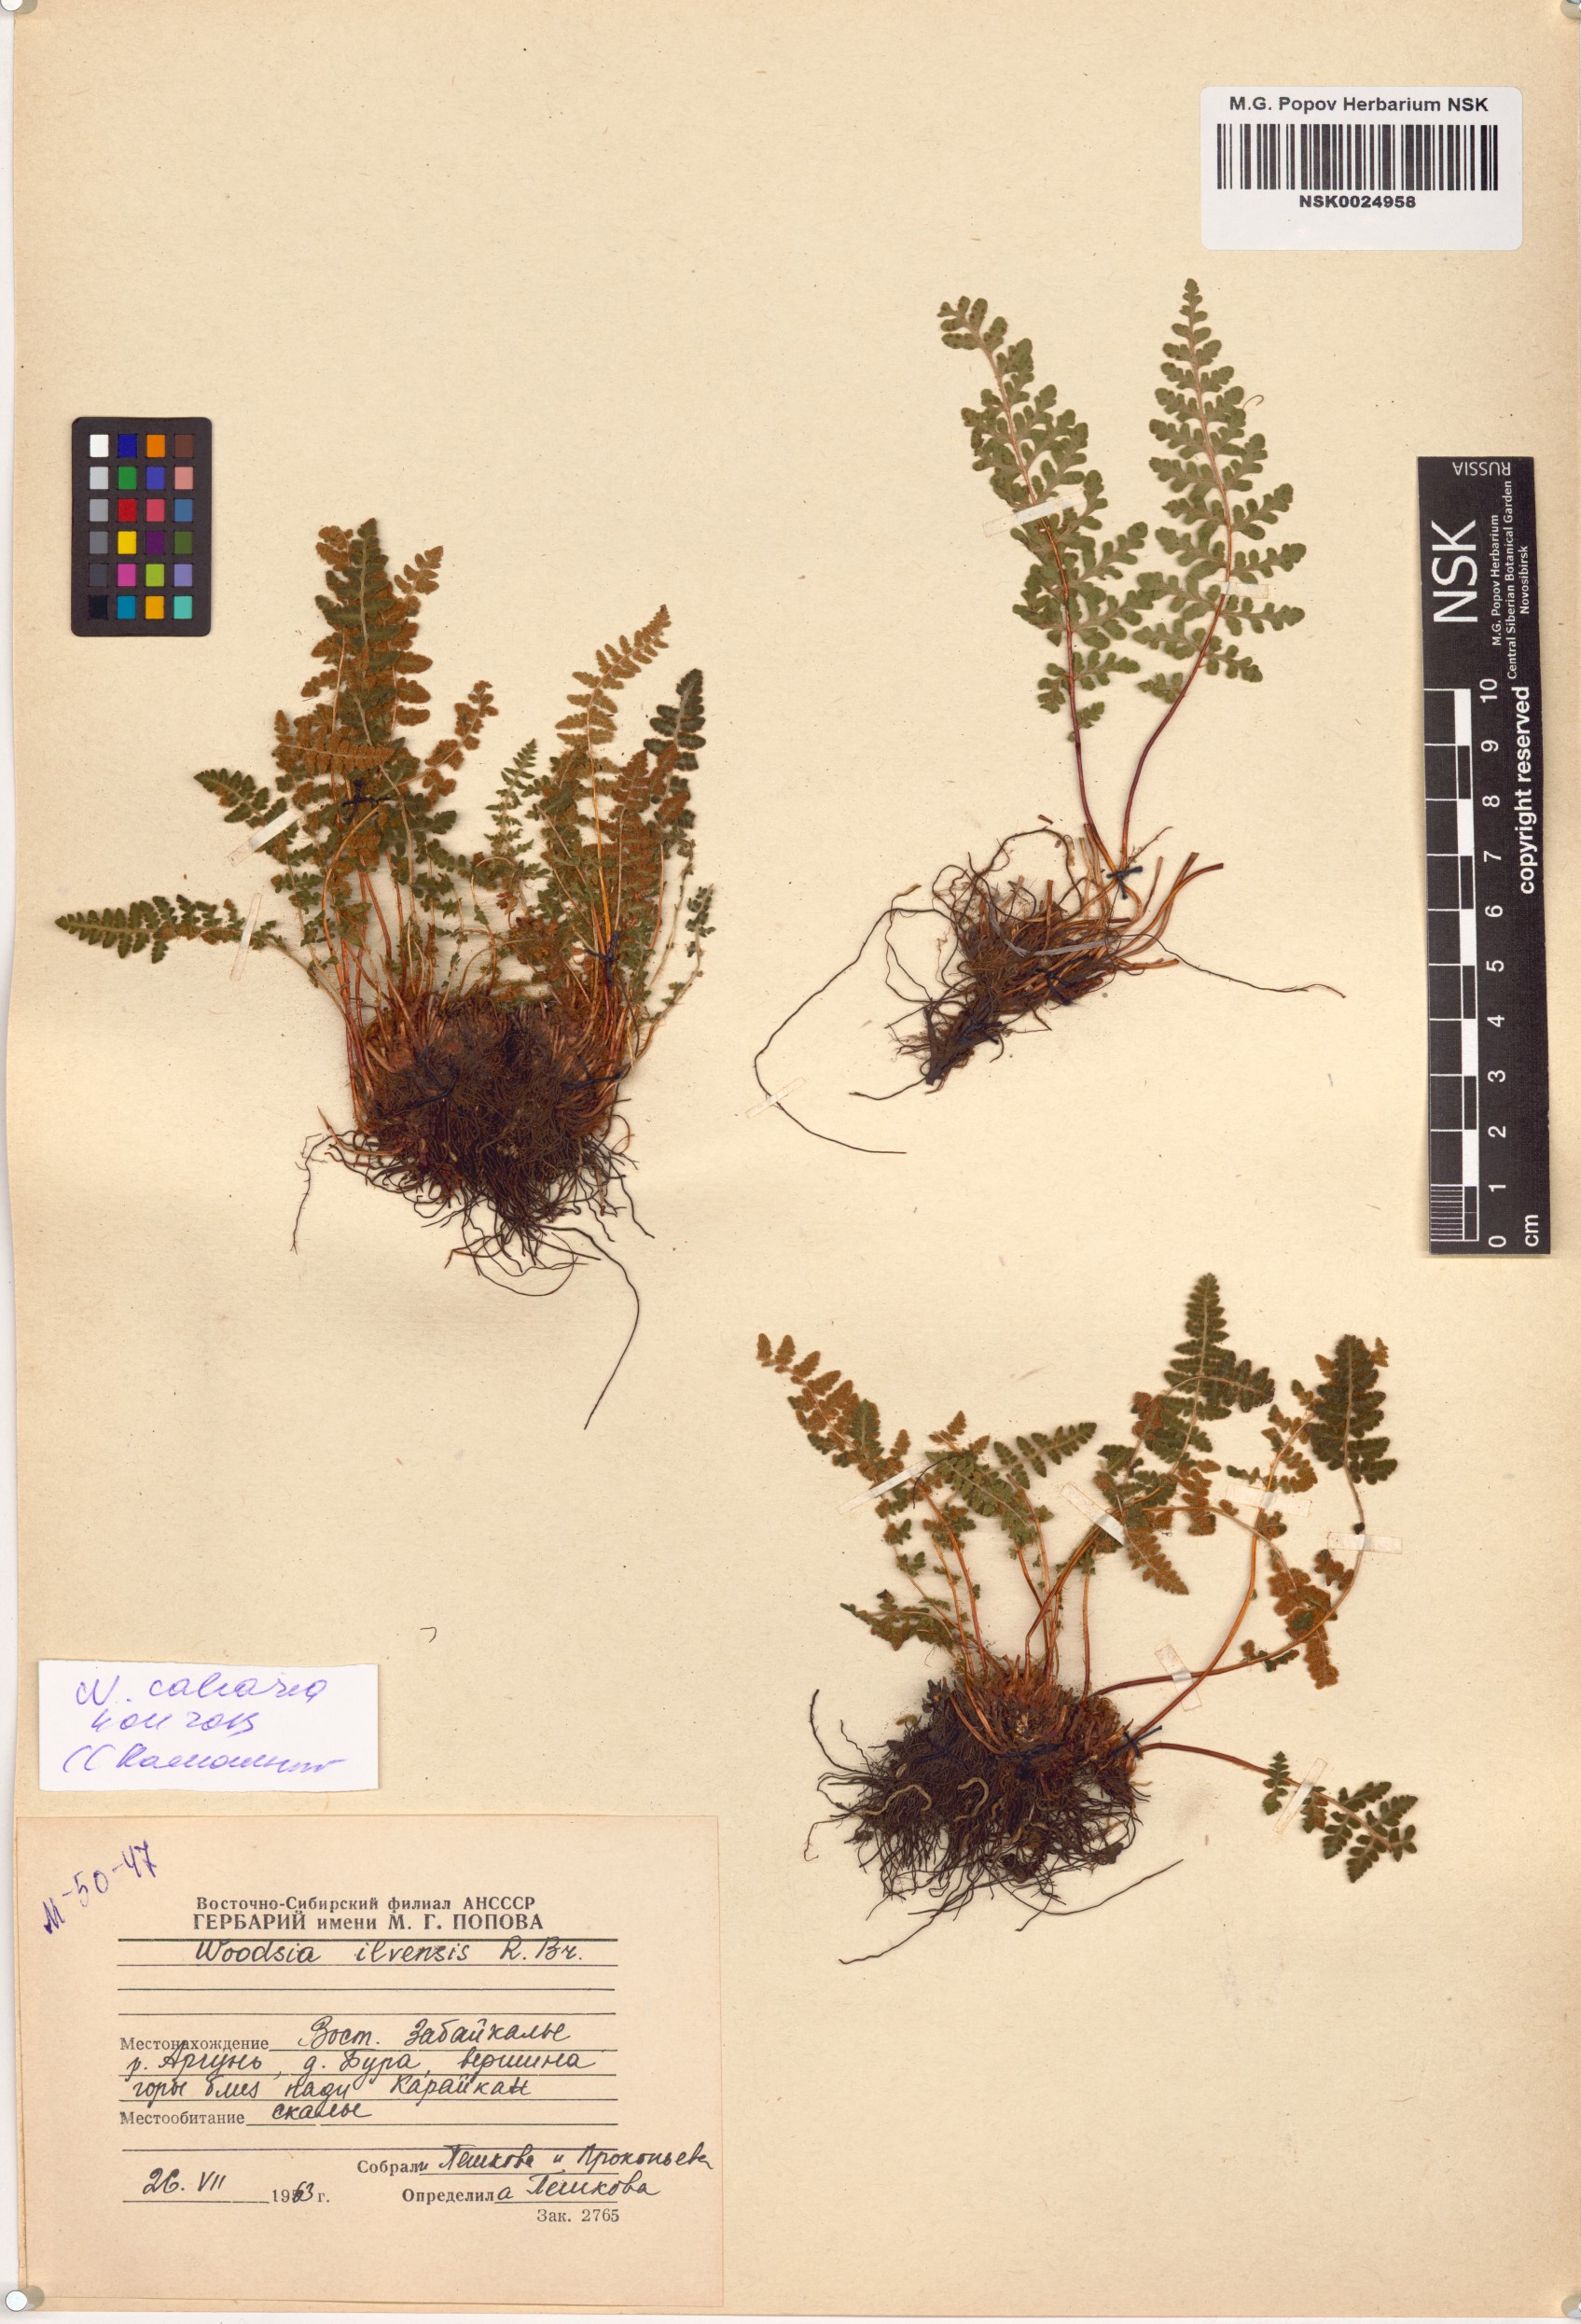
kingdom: Plantae
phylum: Tracheophyta
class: Polypodiopsida
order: Polypodiales
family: Woodsiaceae
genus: Woodsia
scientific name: Woodsia calcarea
